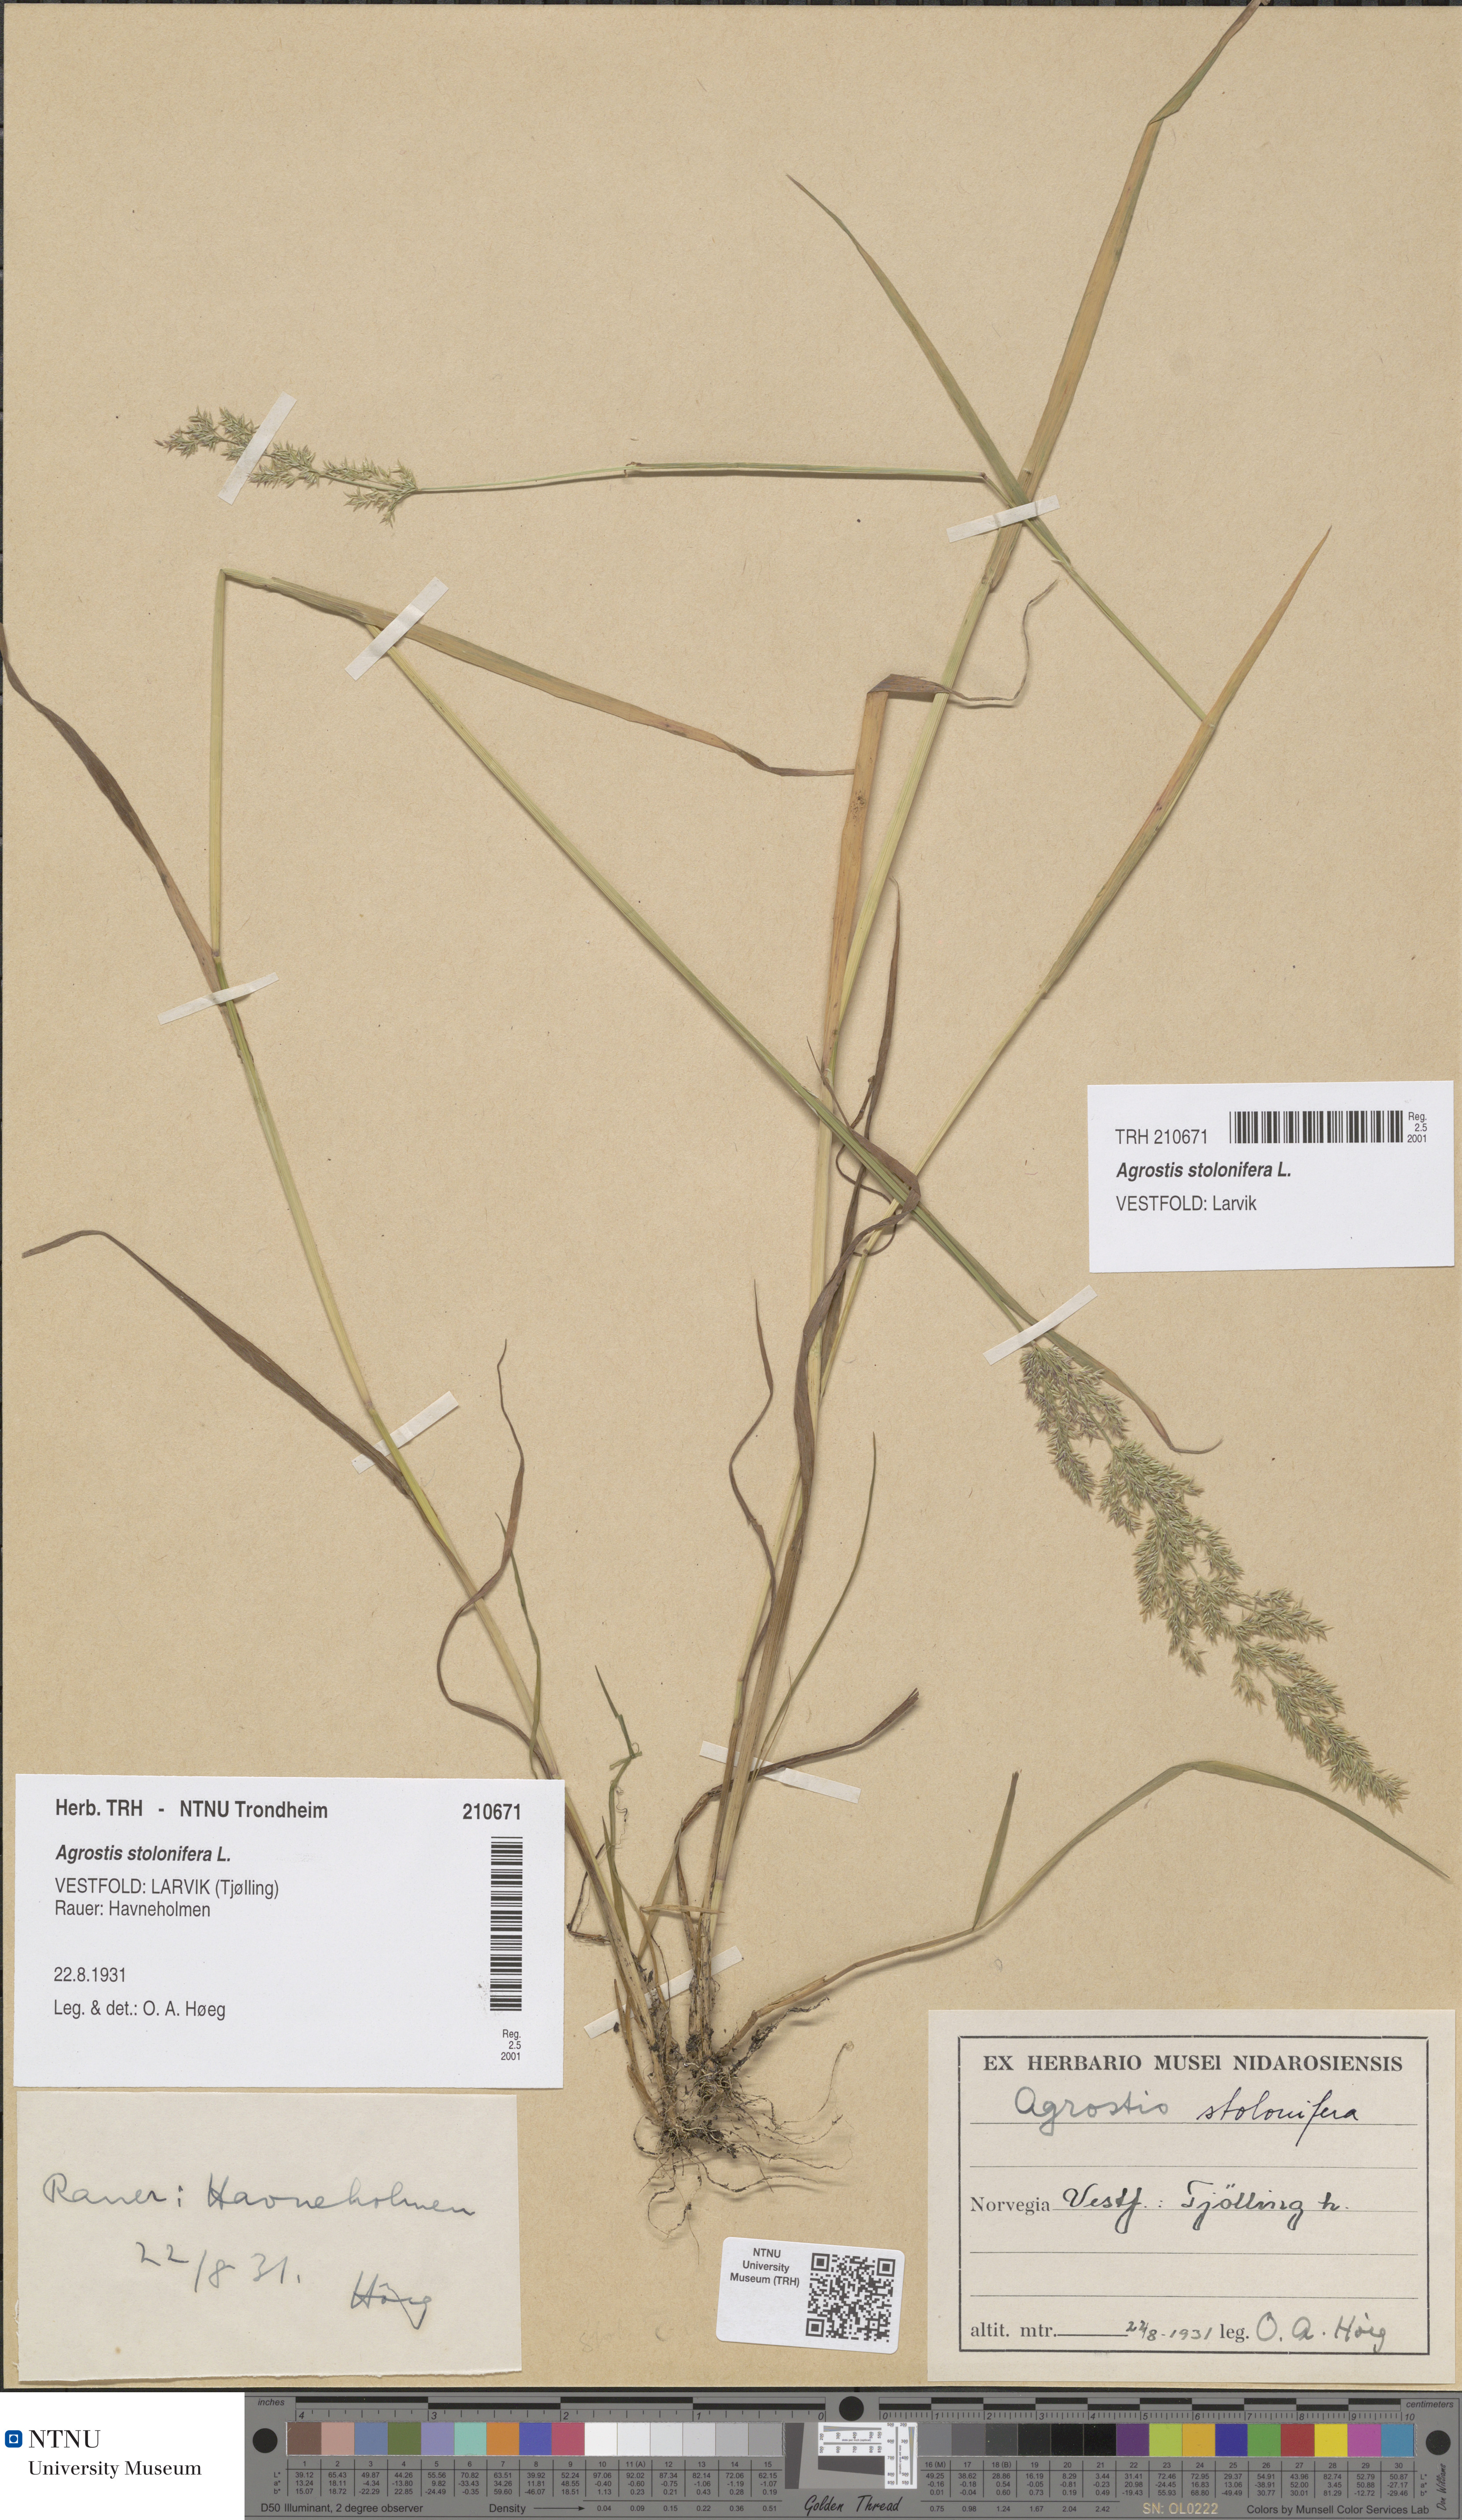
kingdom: Plantae
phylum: Tracheophyta
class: Liliopsida
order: Poales
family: Poaceae
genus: Agrostis
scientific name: Agrostis stolonifera
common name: Creeping bentgrass
